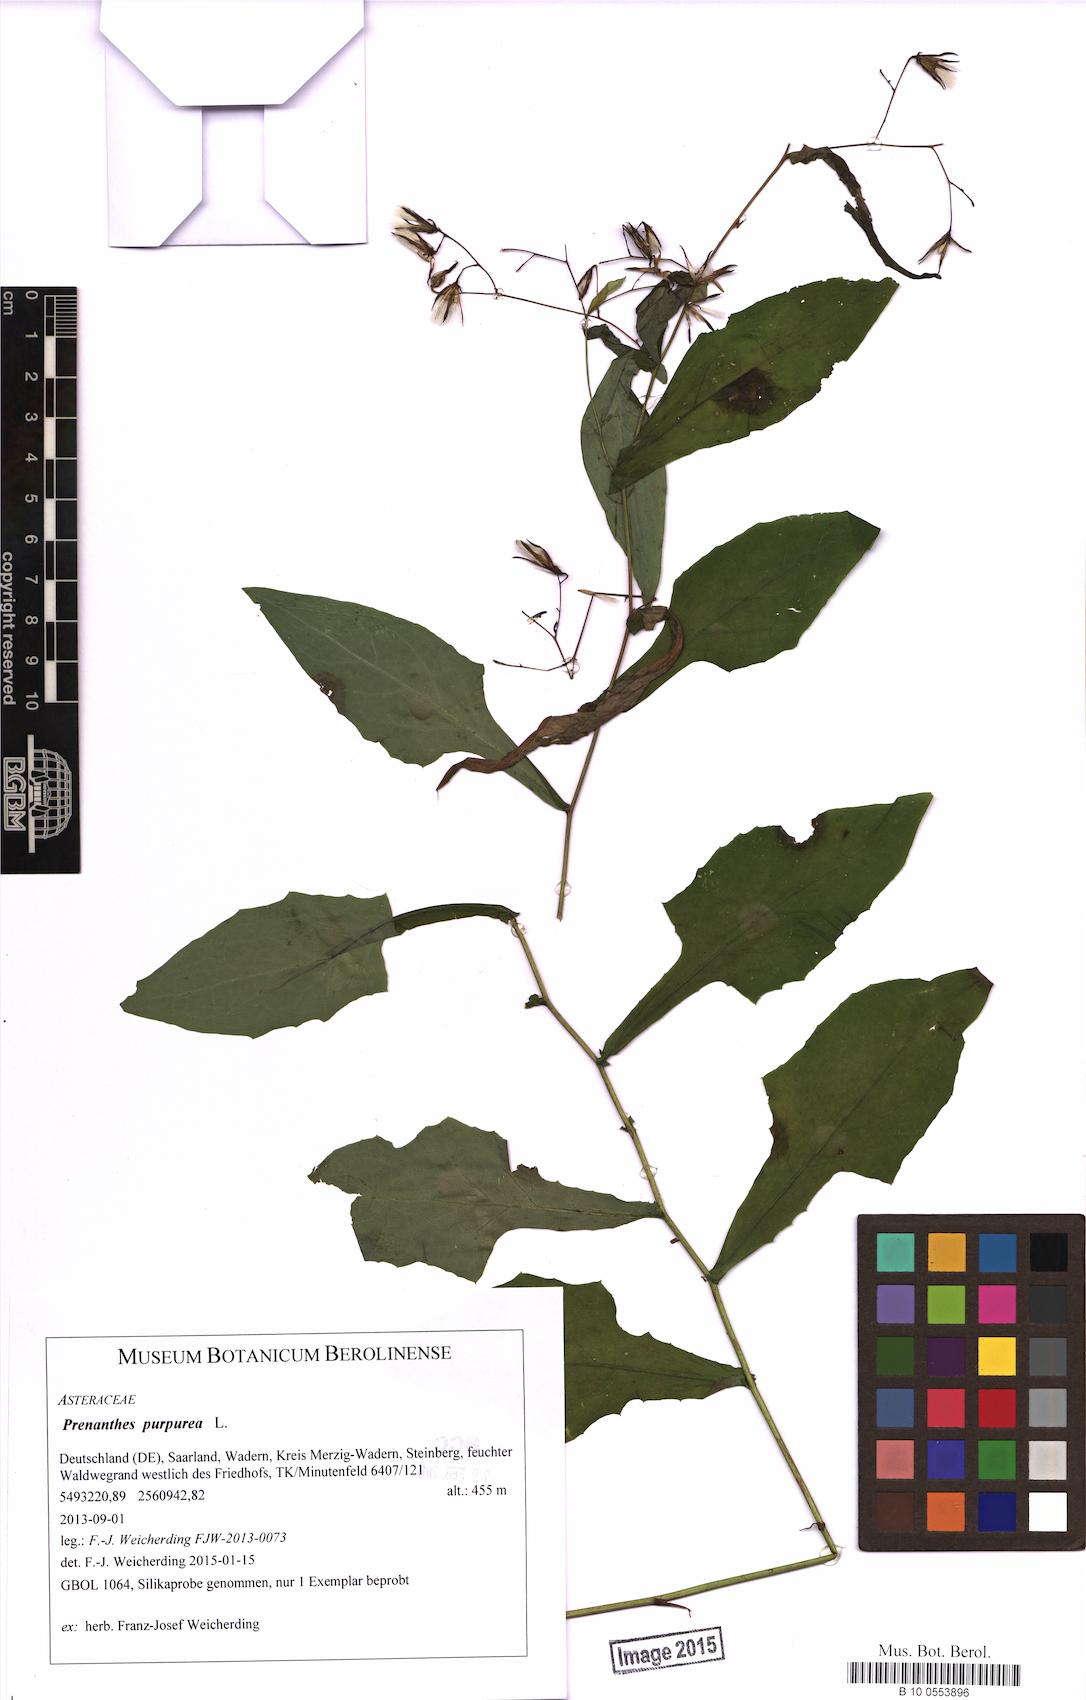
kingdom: Plantae
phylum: Tracheophyta
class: Magnoliopsida
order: Asterales
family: Asteraceae
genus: Prenanthes
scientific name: Prenanthes purpurea
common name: Purple lettuce
